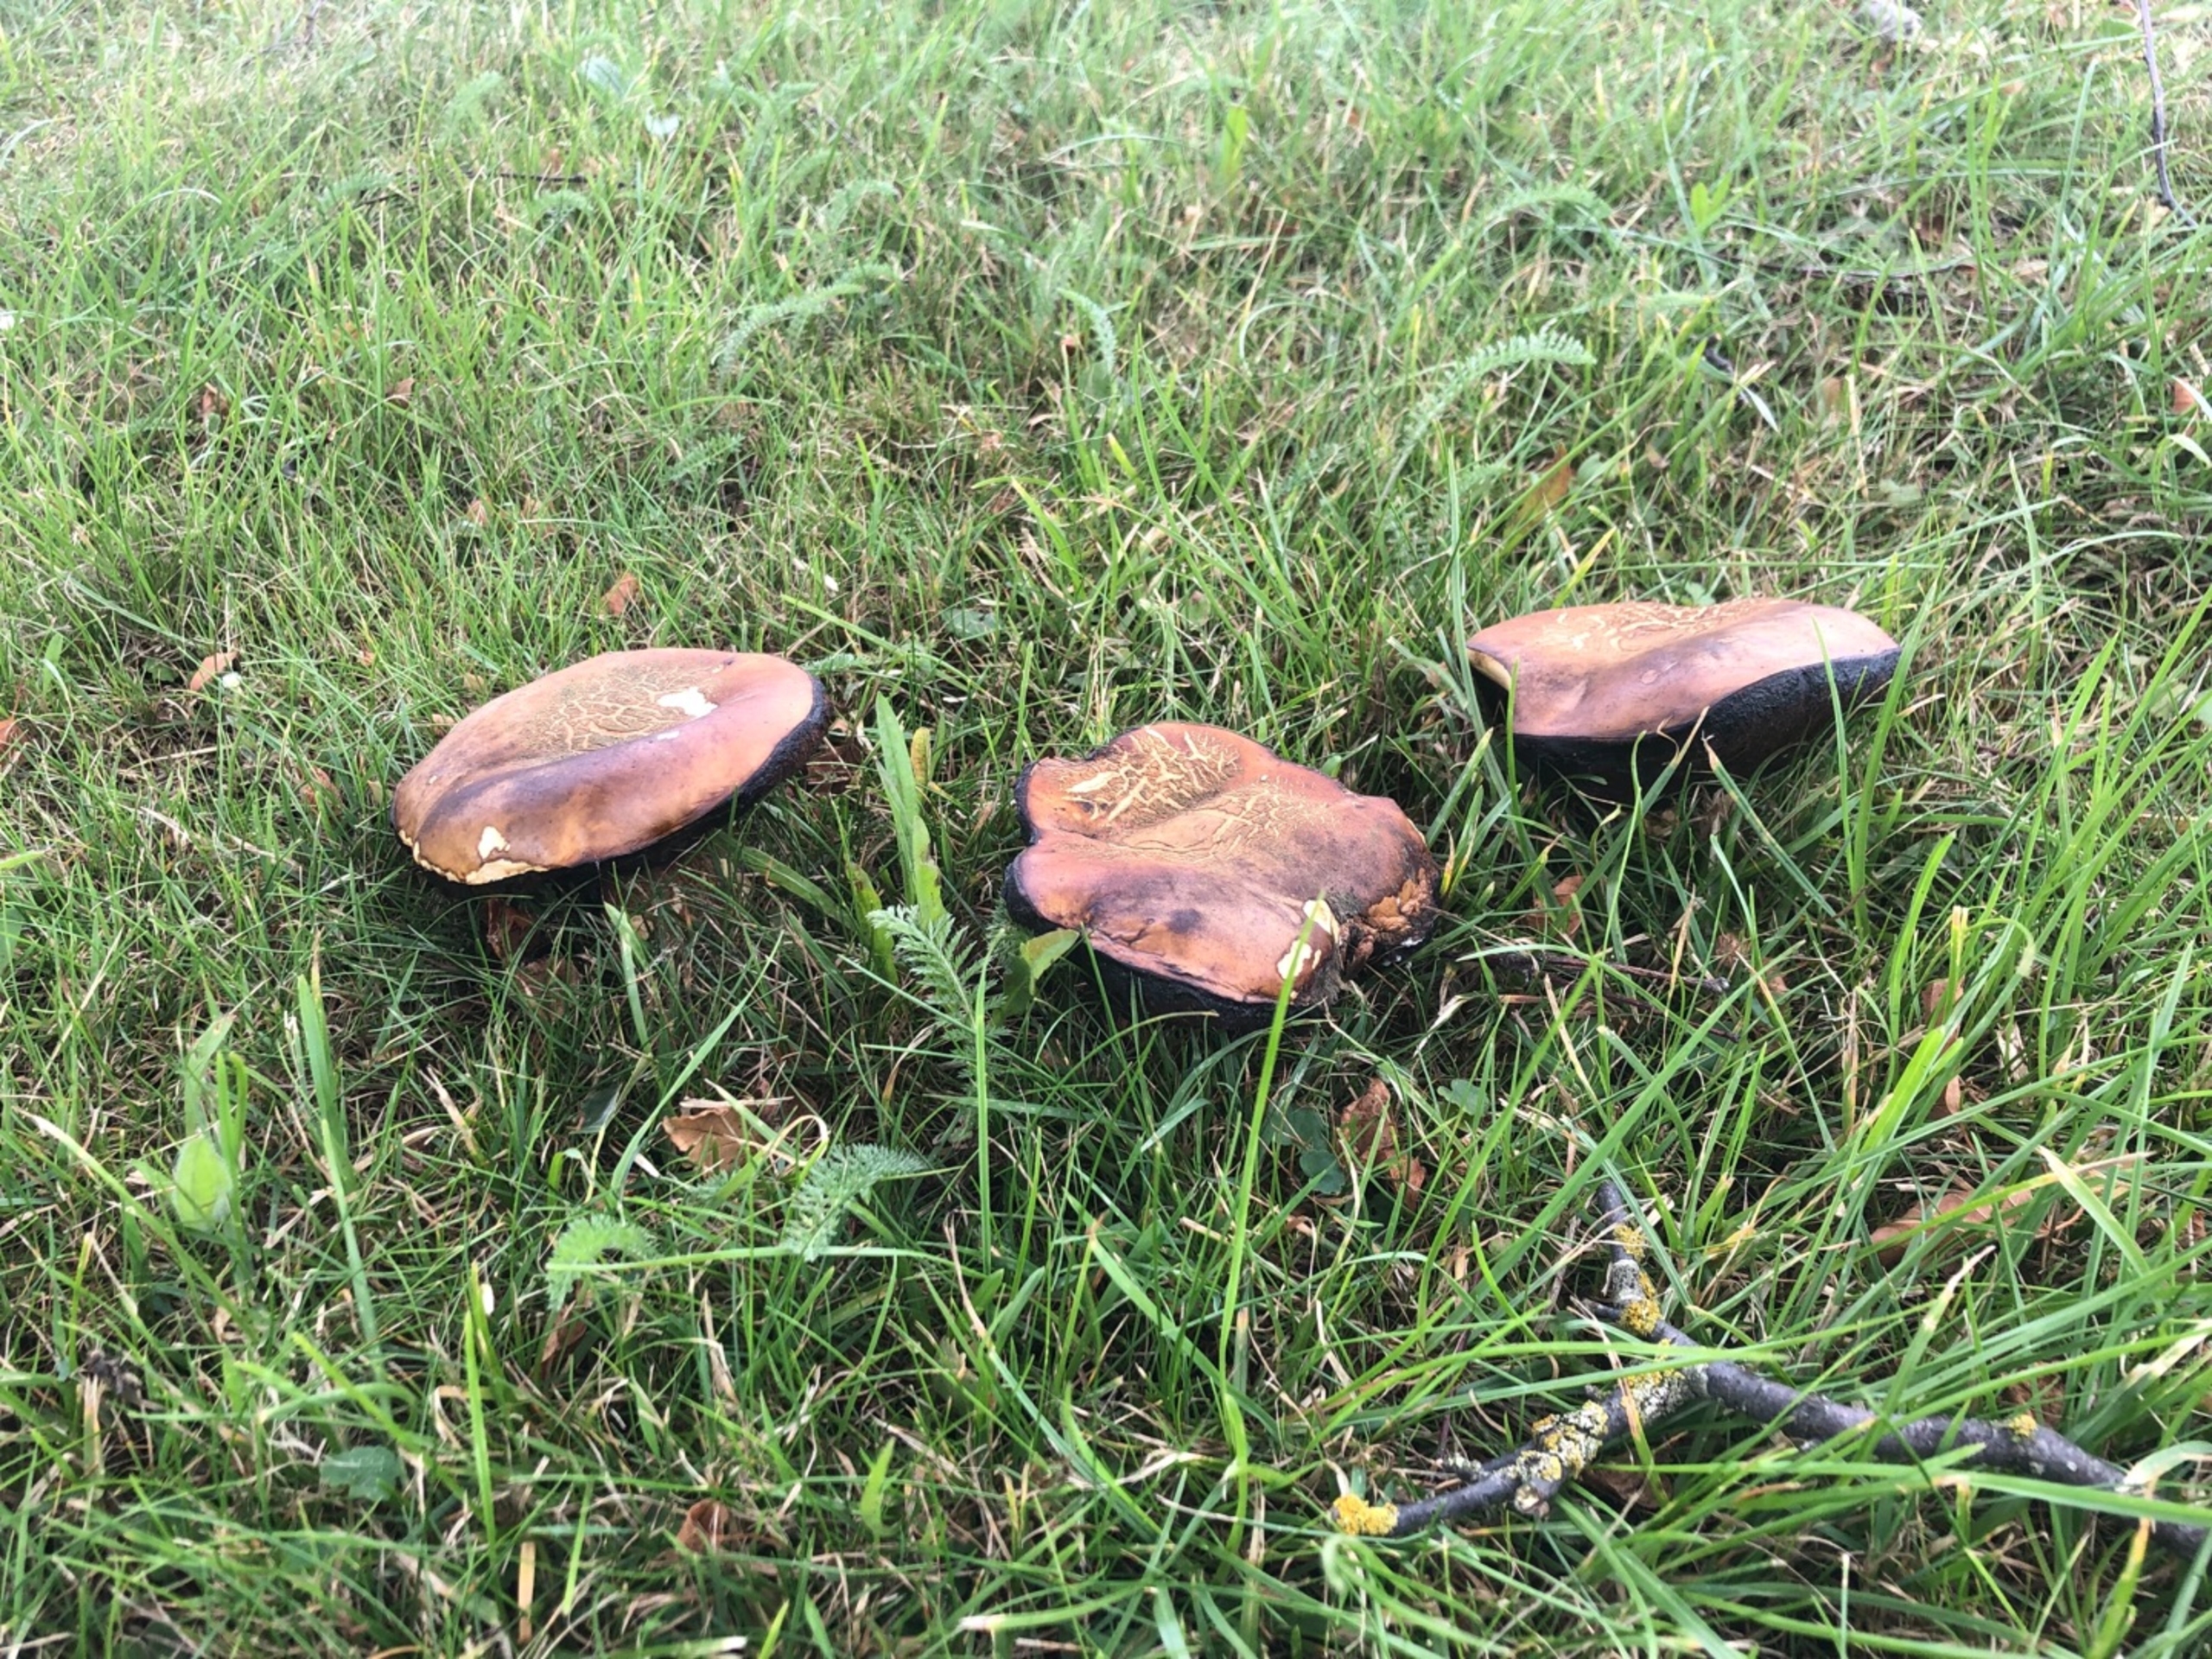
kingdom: Fungi
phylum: Basidiomycota
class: Agaricomycetes
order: Boletales
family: Boletaceae
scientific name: Boletaceae
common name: Rørhatfamilien
